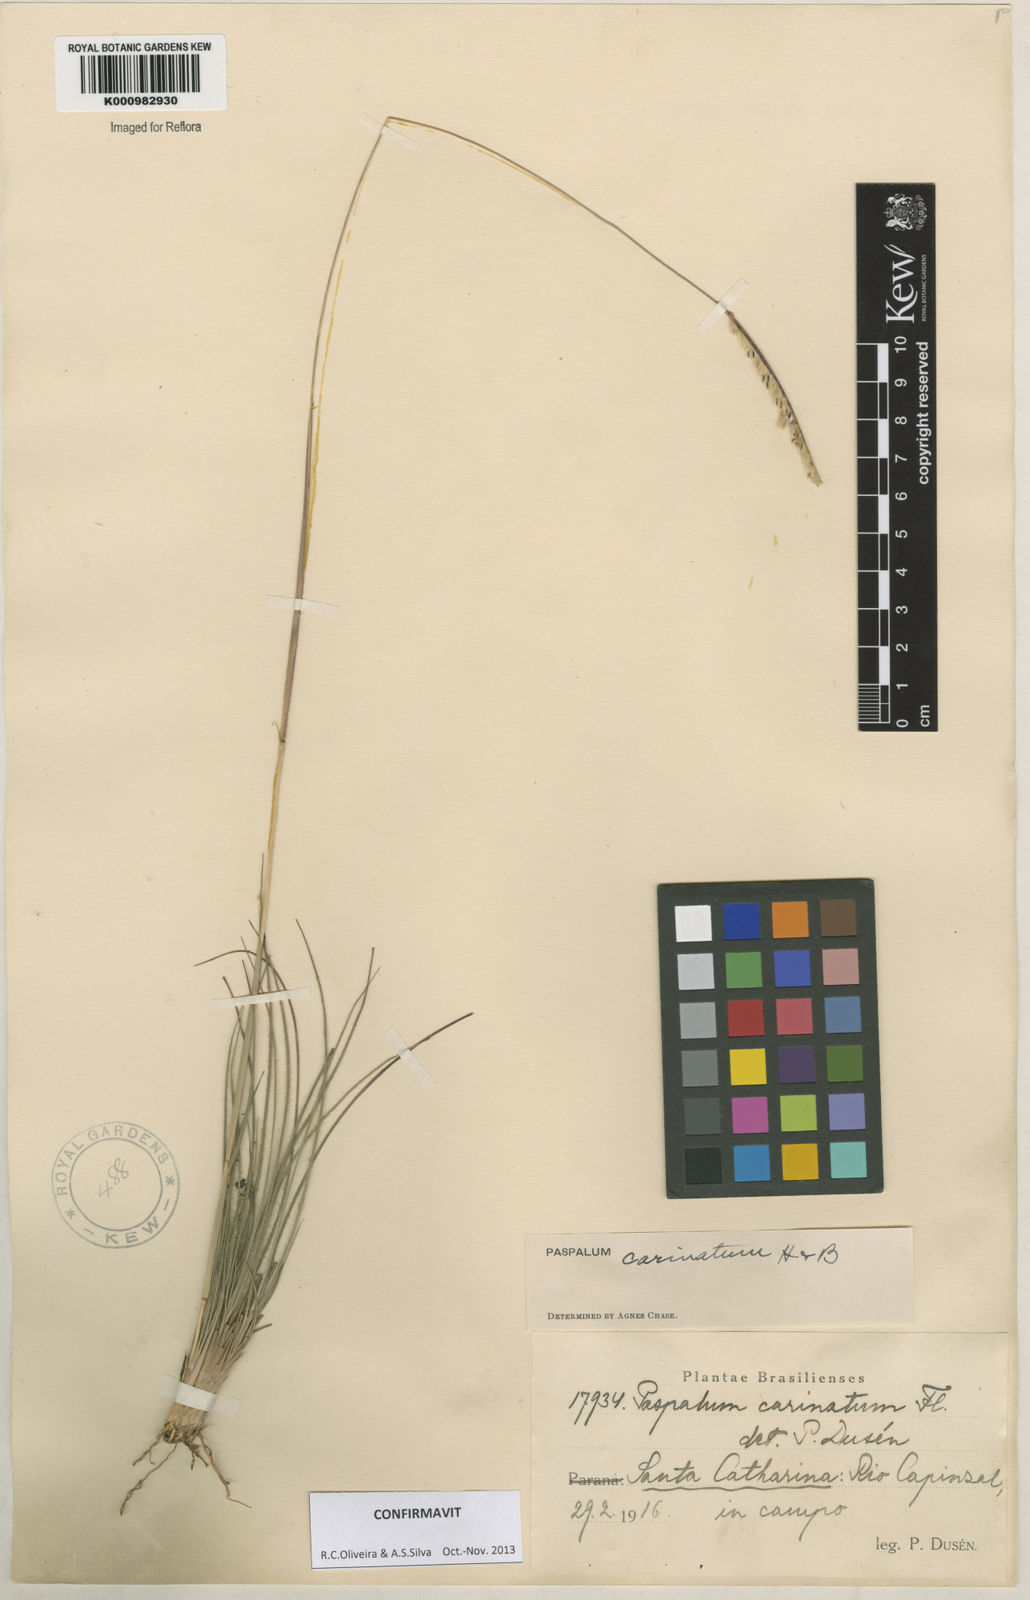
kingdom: Plantae
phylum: Tracheophyta
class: Liliopsida
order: Poales
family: Poaceae
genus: Paspalum
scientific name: Paspalum
